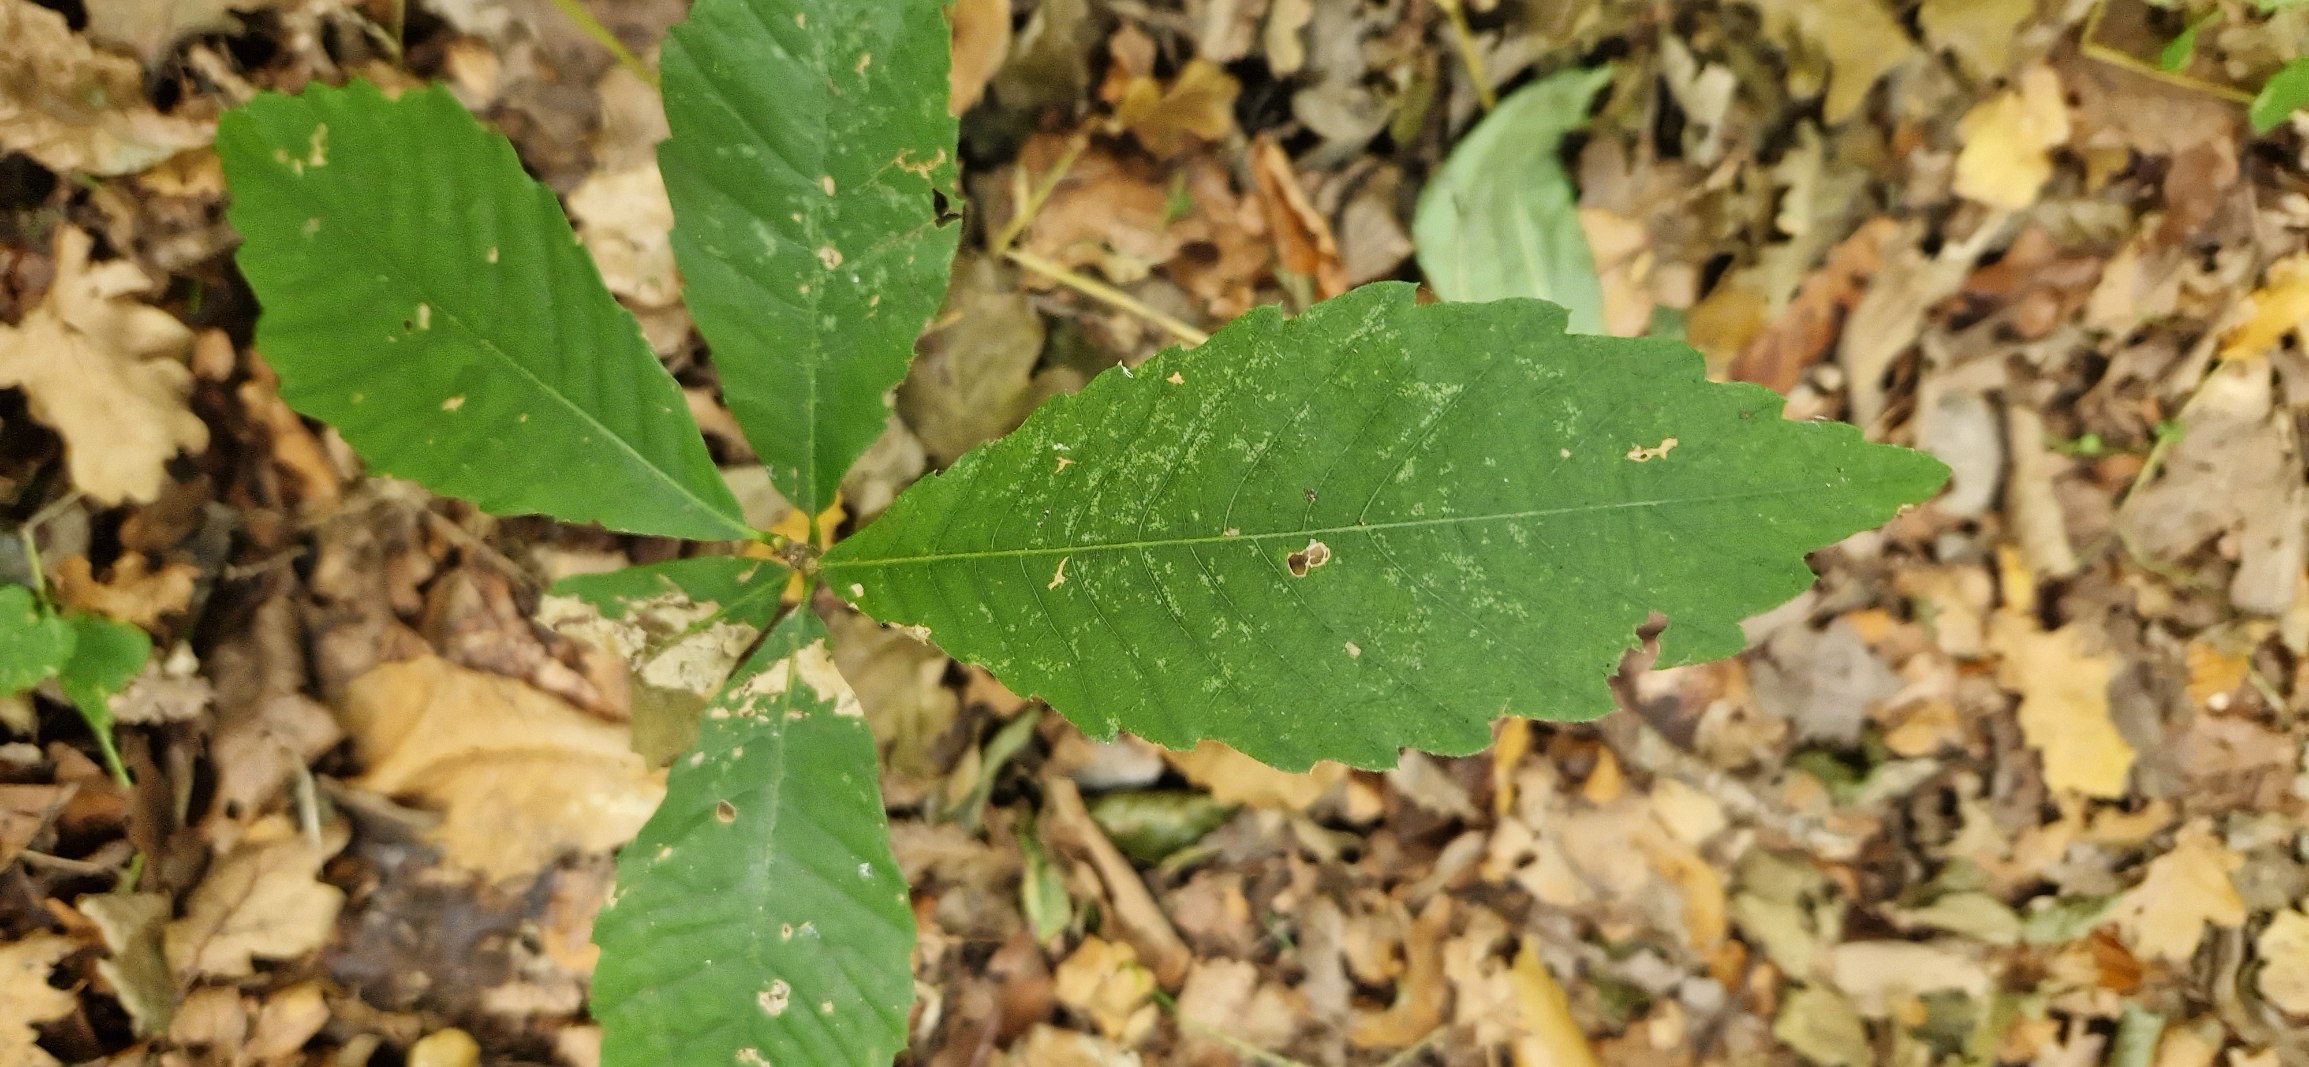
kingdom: Plantae
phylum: Tracheophyta
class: Magnoliopsida
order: Fagales
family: Fagaceae
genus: Castanea
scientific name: Castanea sativa
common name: Ægte kastanie
